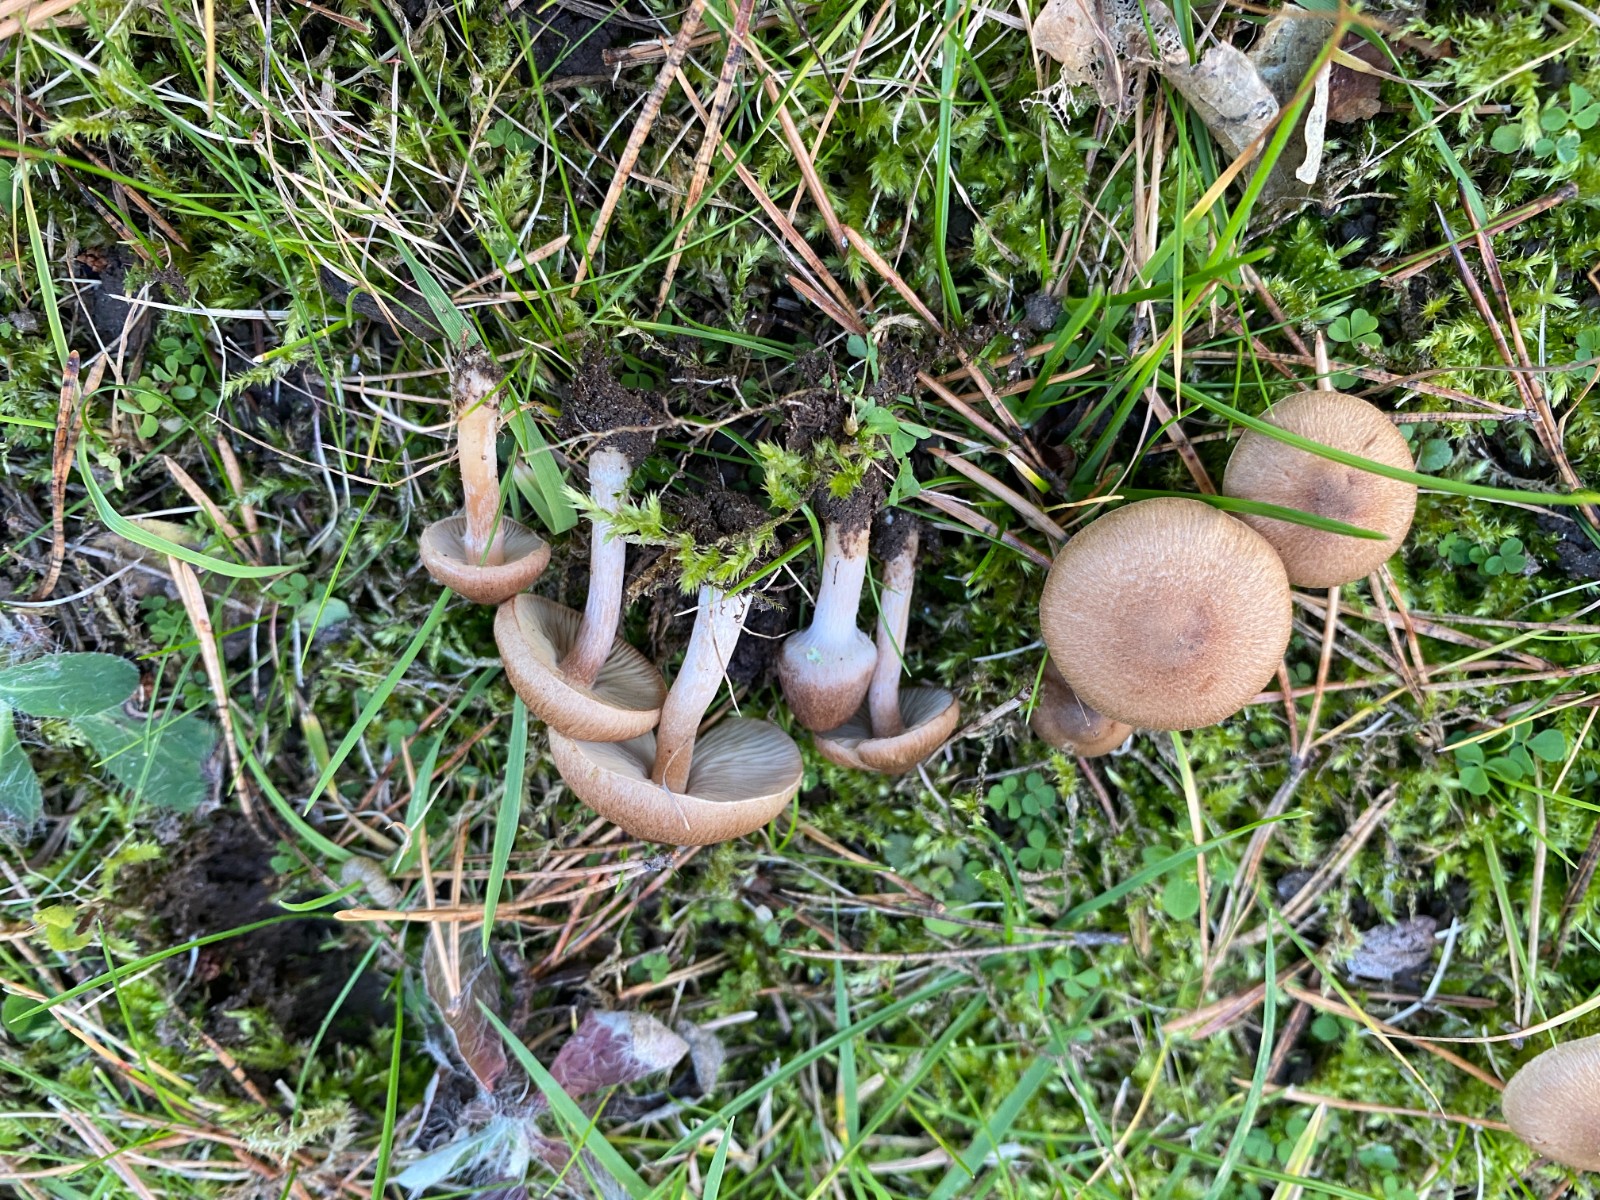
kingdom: Fungi
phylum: Basidiomycota
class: Agaricomycetes
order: Agaricales
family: Inocybaceae
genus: Inocybe
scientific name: Inocybe
